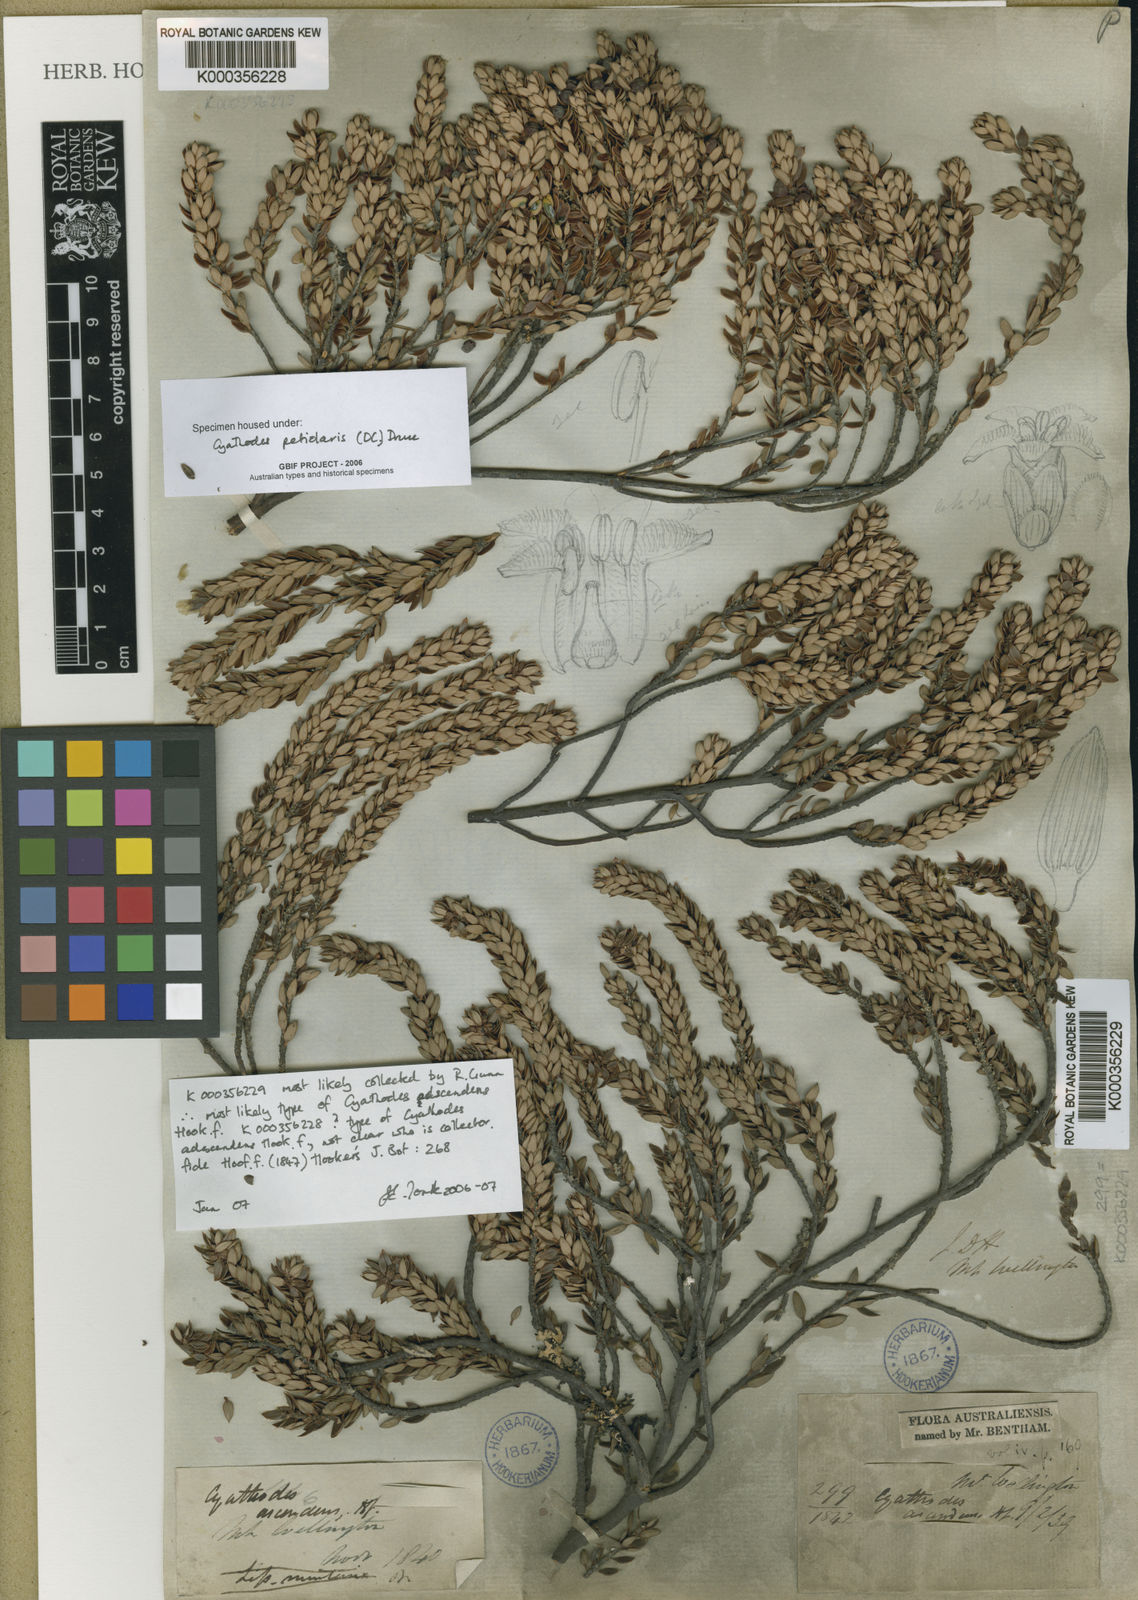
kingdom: Plantae
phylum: Tracheophyta
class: Magnoliopsida
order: Ericales
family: Ericaceae
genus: Planocarpa
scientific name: Planocarpa petiolaris
